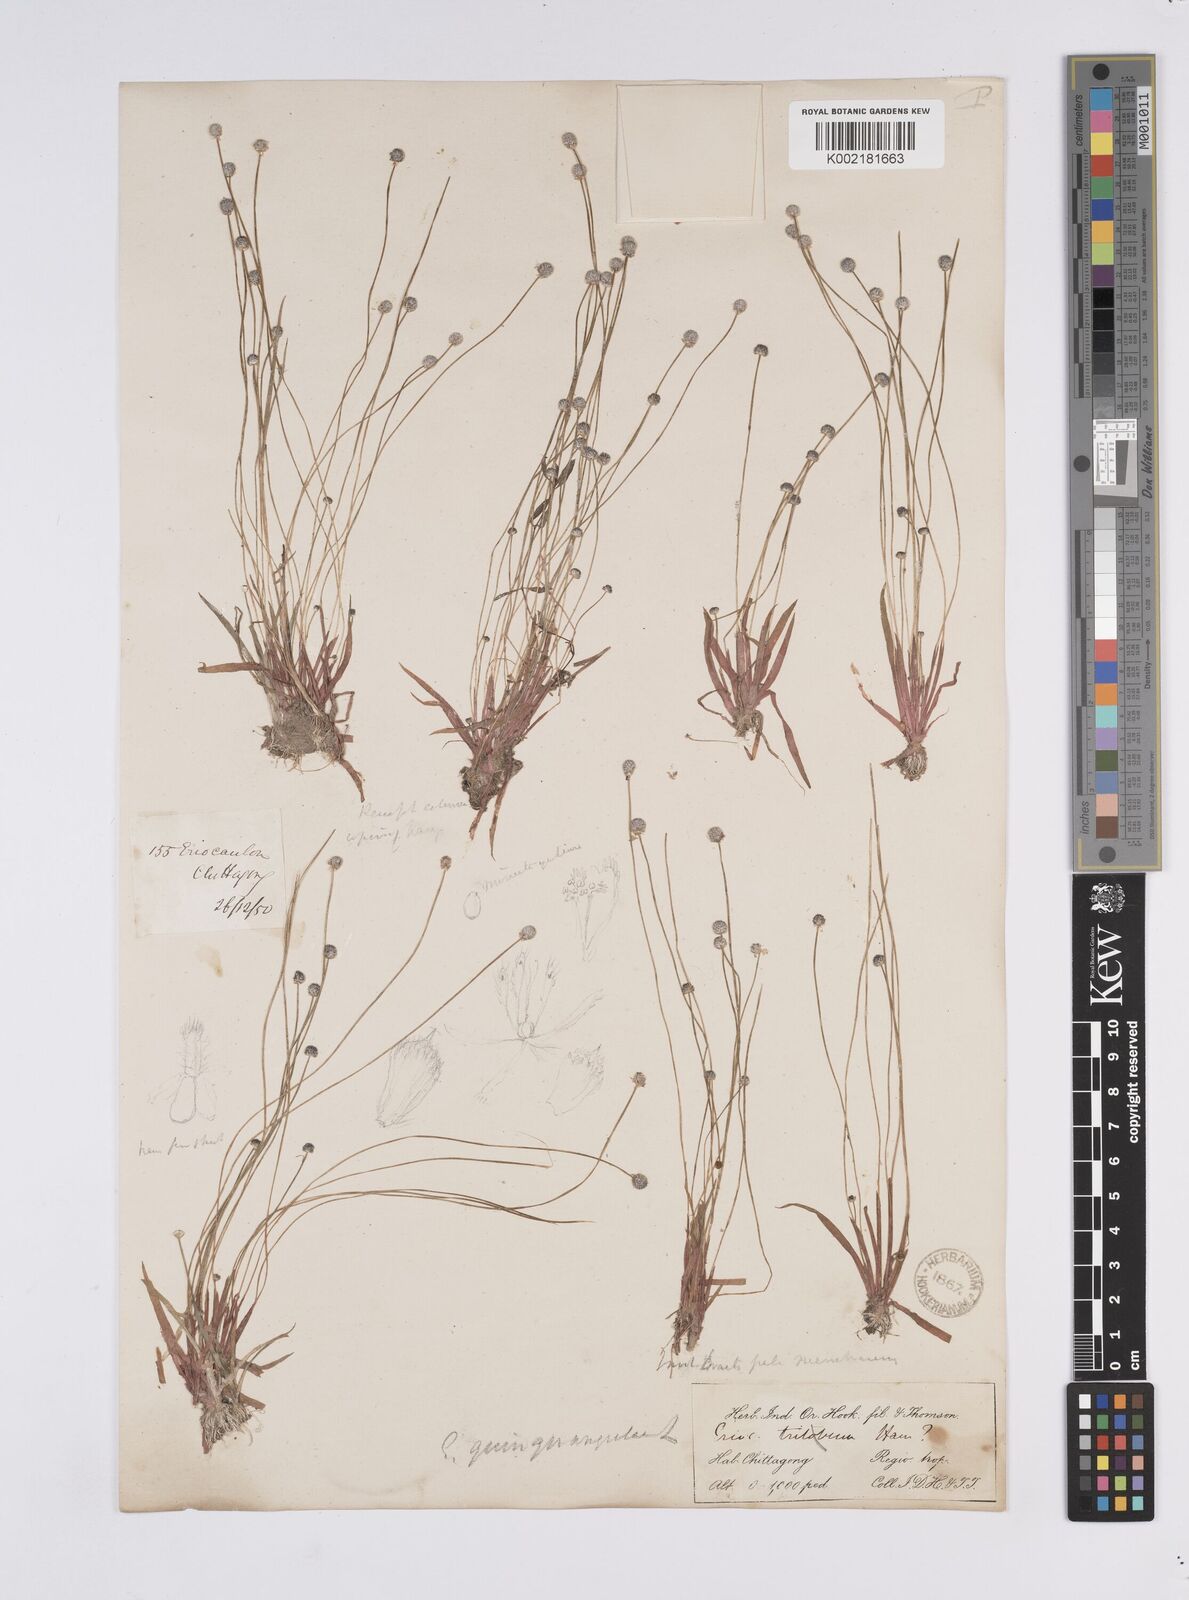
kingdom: Plantae
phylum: Tracheophyta
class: Liliopsida
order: Poales
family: Eriocaulaceae
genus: Eriocaulon
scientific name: Eriocaulon quinquangulare
